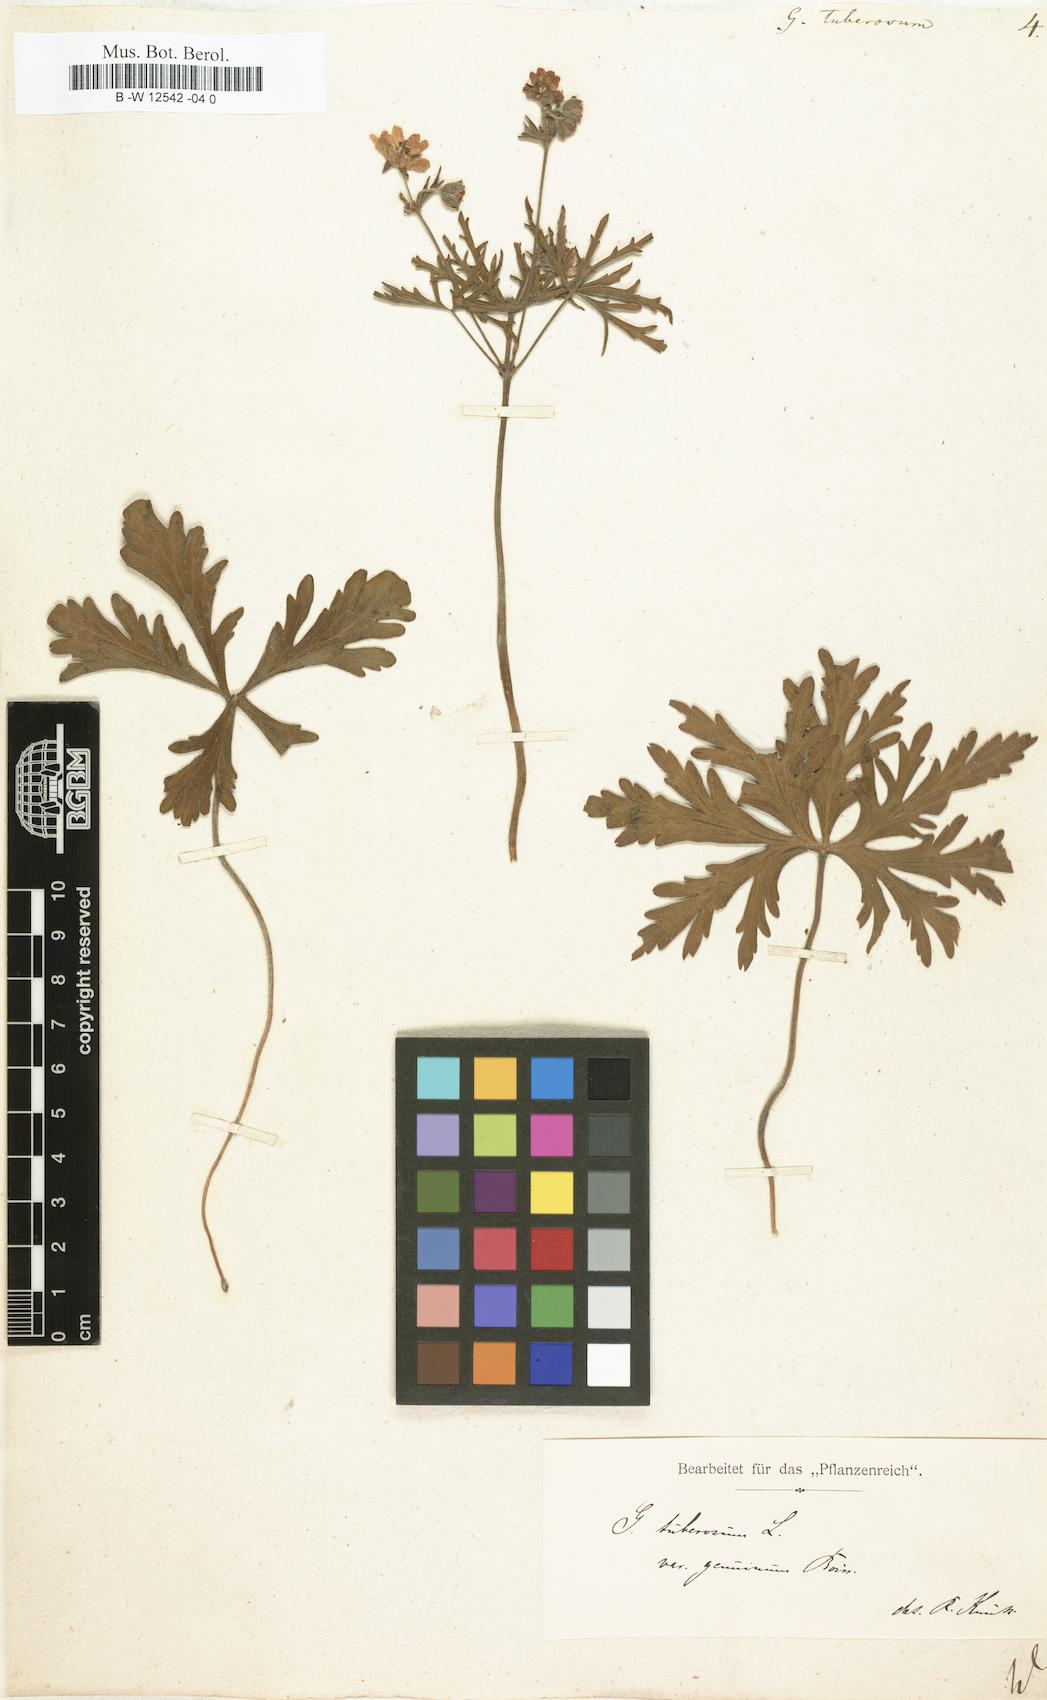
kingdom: Plantae
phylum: Tracheophyta
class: Magnoliopsida
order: Geraniales
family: Geraniaceae
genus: Geranium
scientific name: Geranium tuberosum
